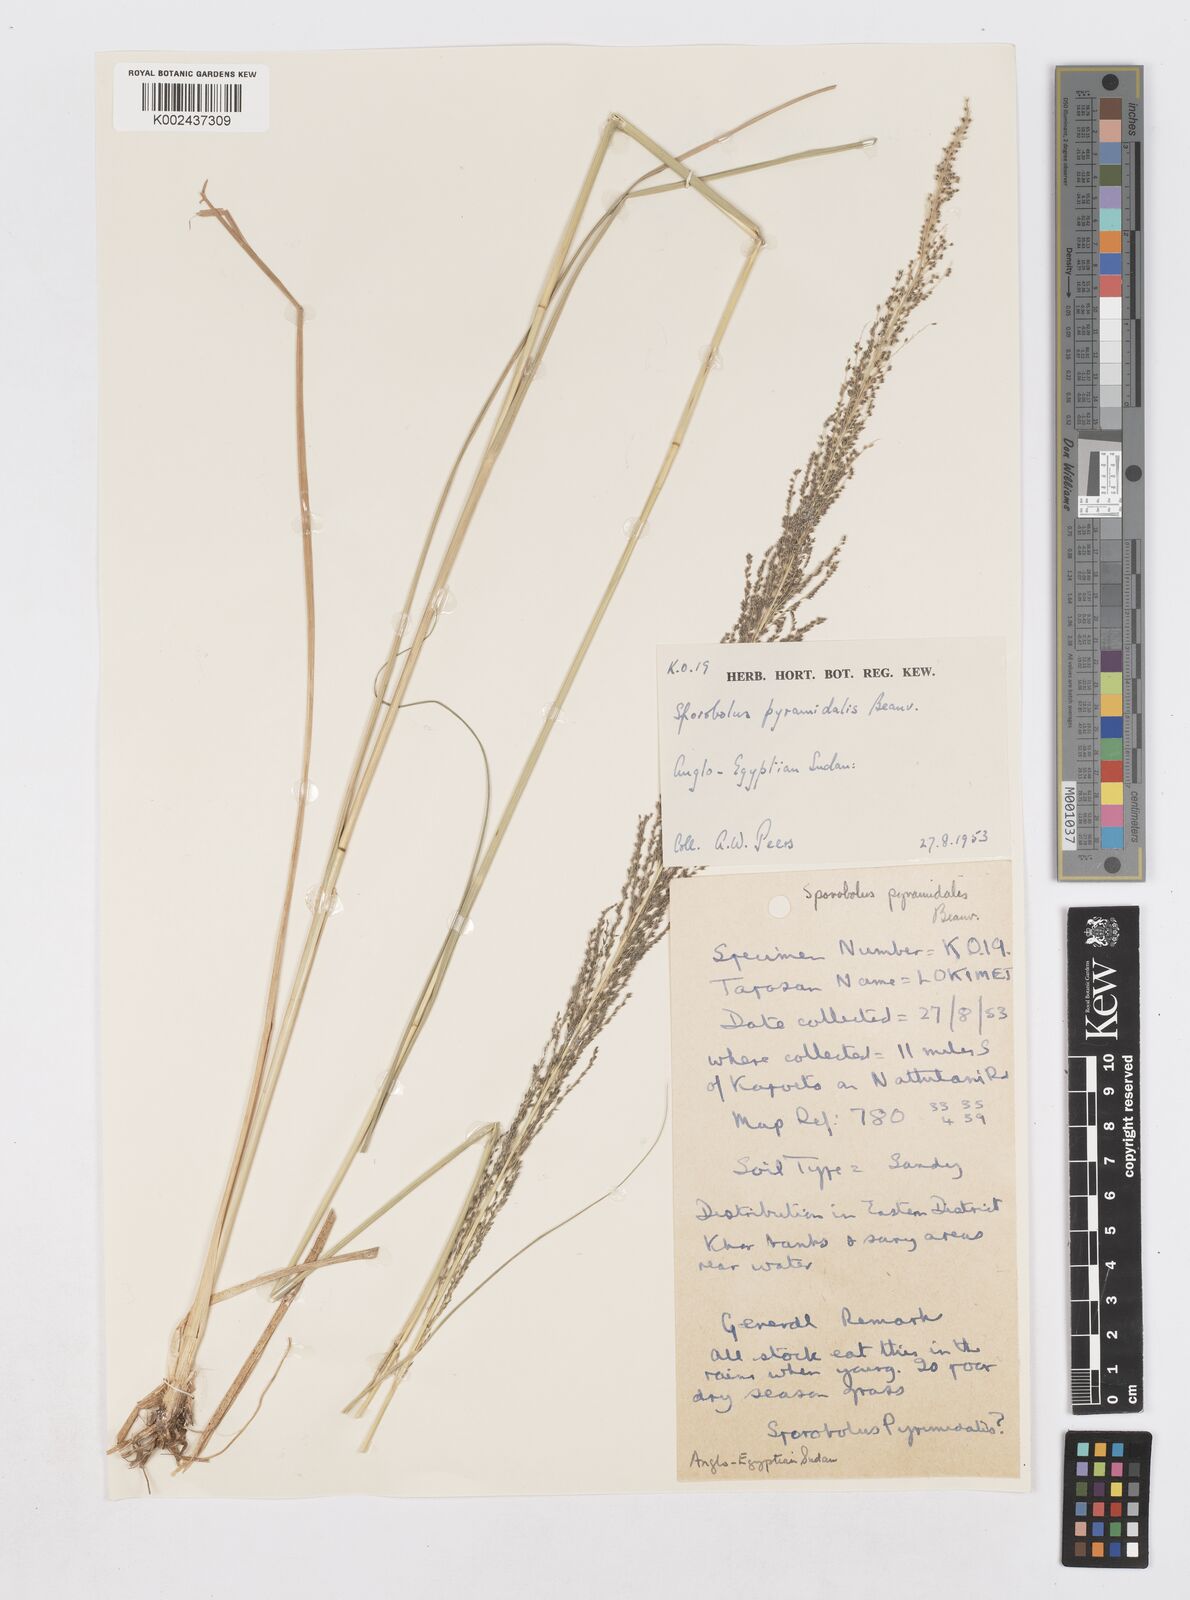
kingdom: Plantae
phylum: Tracheophyta
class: Liliopsida
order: Poales
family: Poaceae
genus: Sporobolus
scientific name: Sporobolus pyramidalis
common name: West indian dropseed
